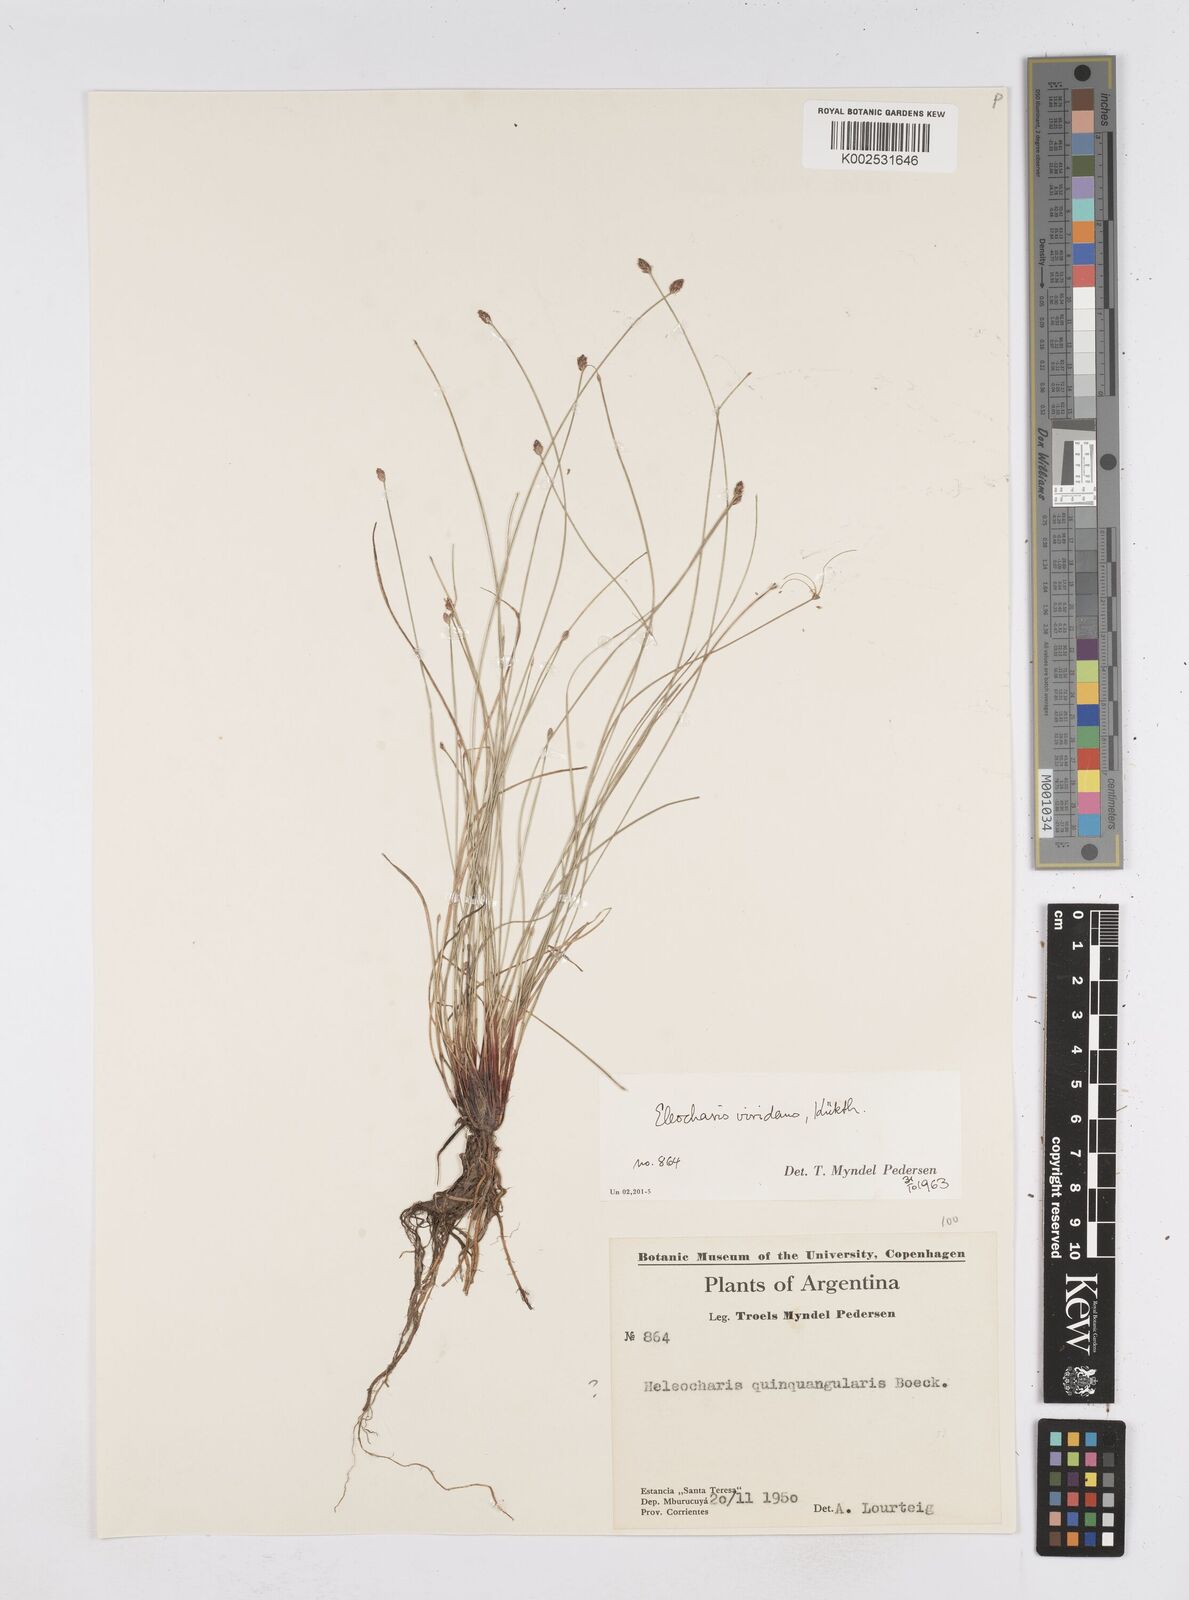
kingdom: Plantae
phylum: Tracheophyta
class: Liliopsida
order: Poales
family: Cyperaceae
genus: Eleocharis
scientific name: Eleocharis viridans
